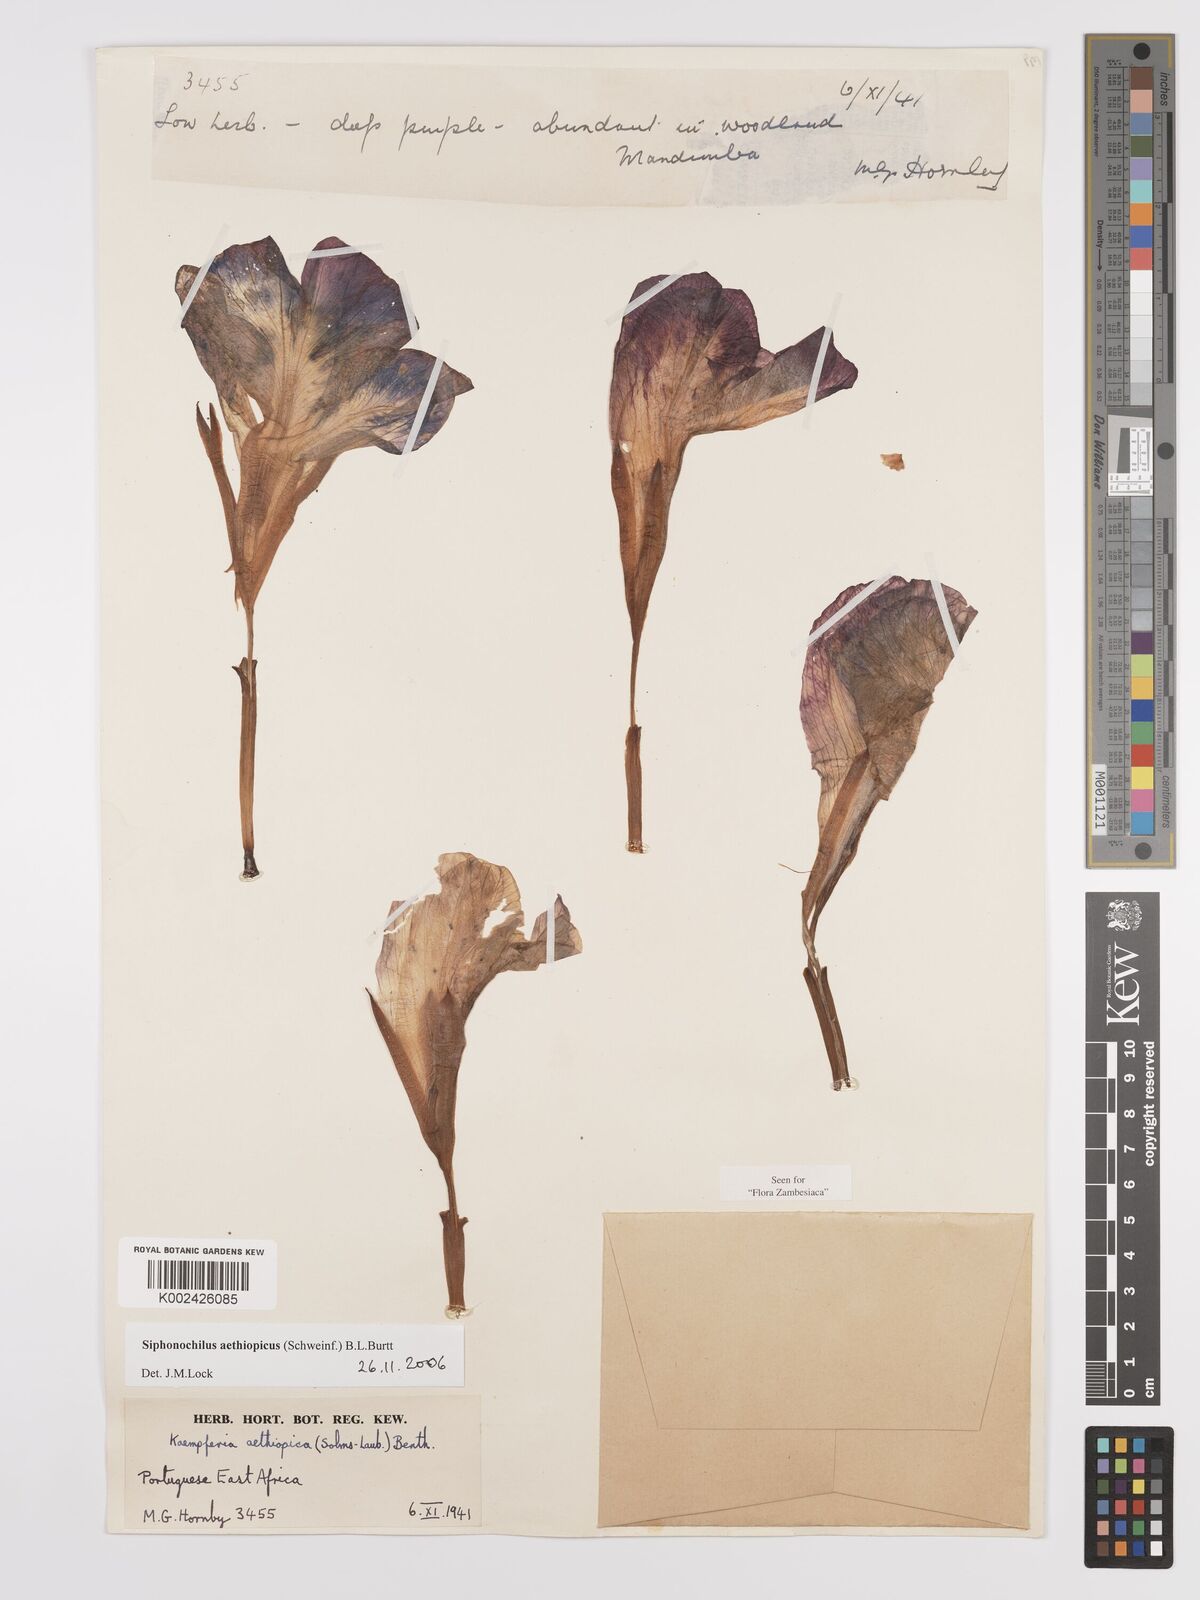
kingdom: Plantae
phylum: Tracheophyta
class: Liliopsida
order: Zingiberales
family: Zingiberaceae
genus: Siphonochilus
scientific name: Siphonochilus aethiopicus
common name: African-ginger
